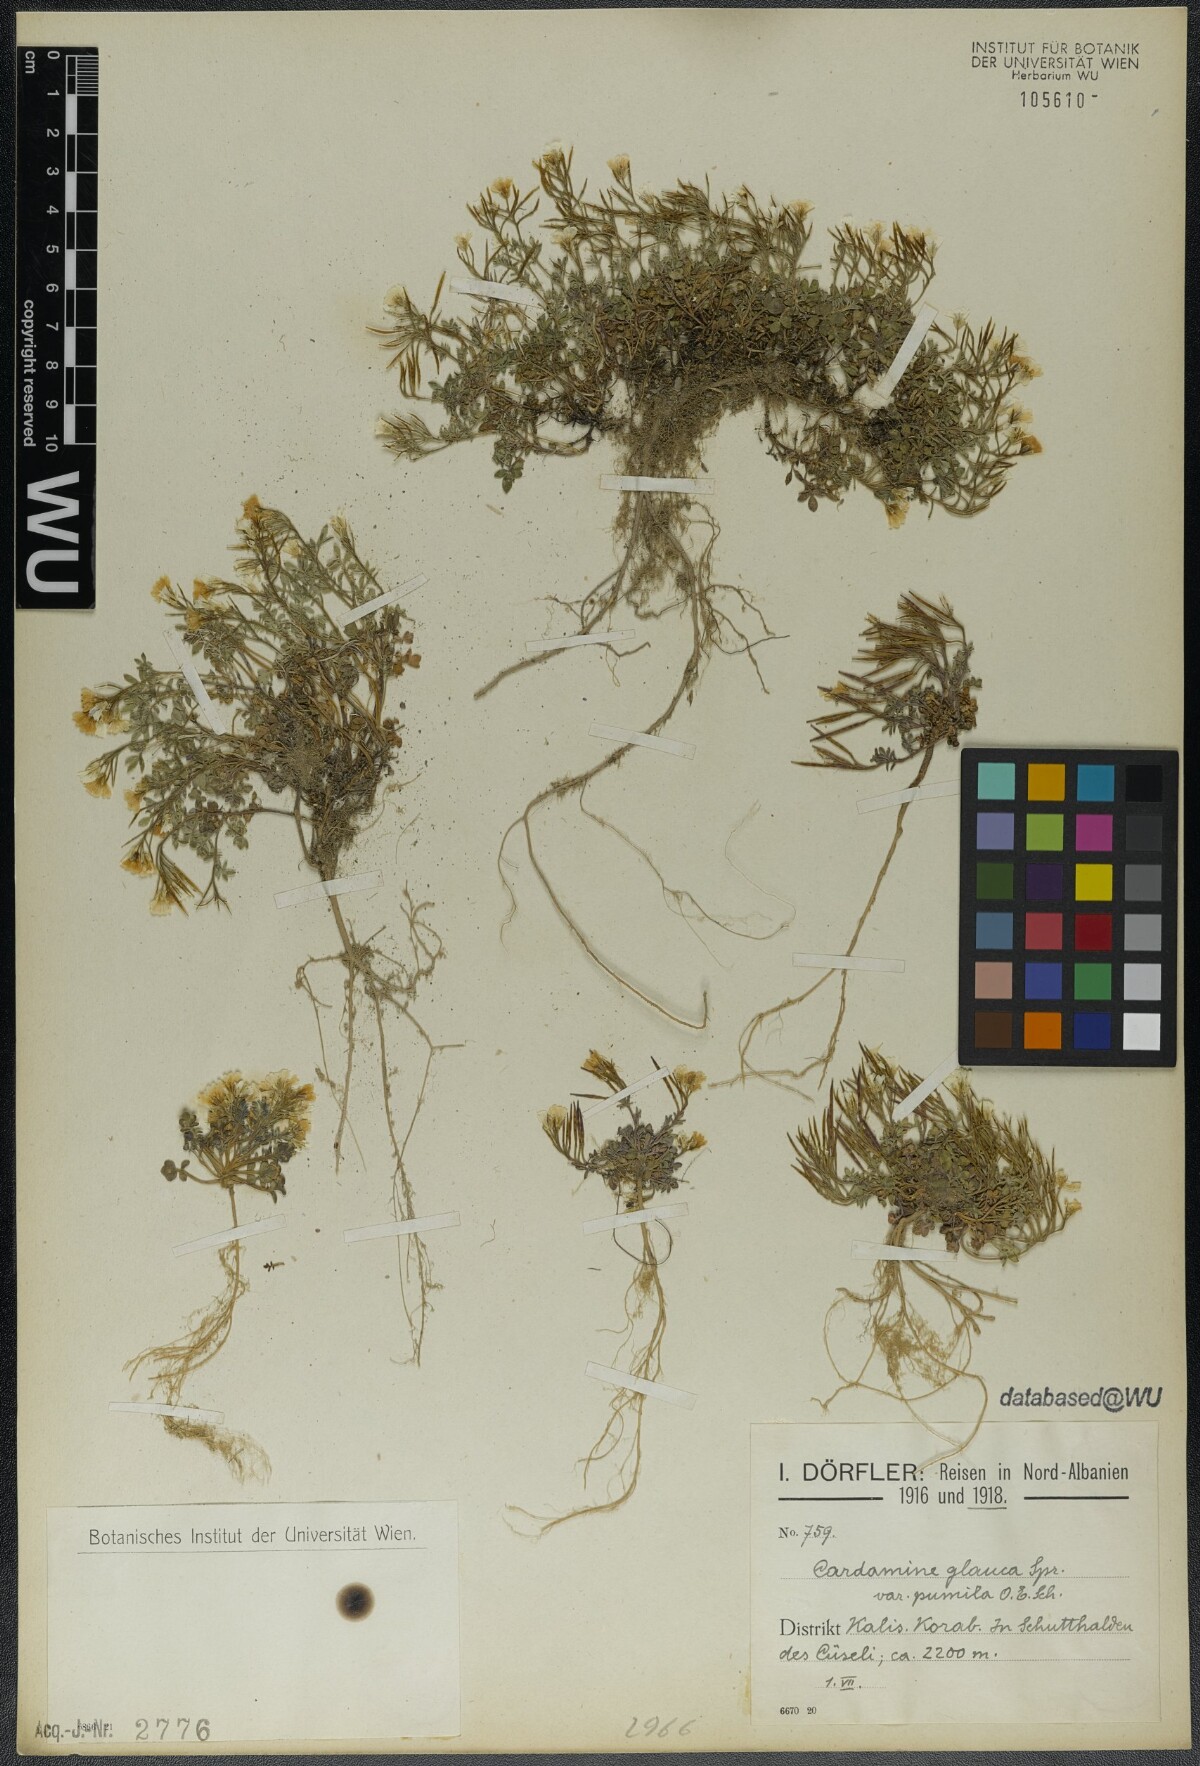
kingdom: Plantae
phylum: Tracheophyta
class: Magnoliopsida
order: Brassicales
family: Brassicaceae
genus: Cardamine
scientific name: Cardamine glauca
